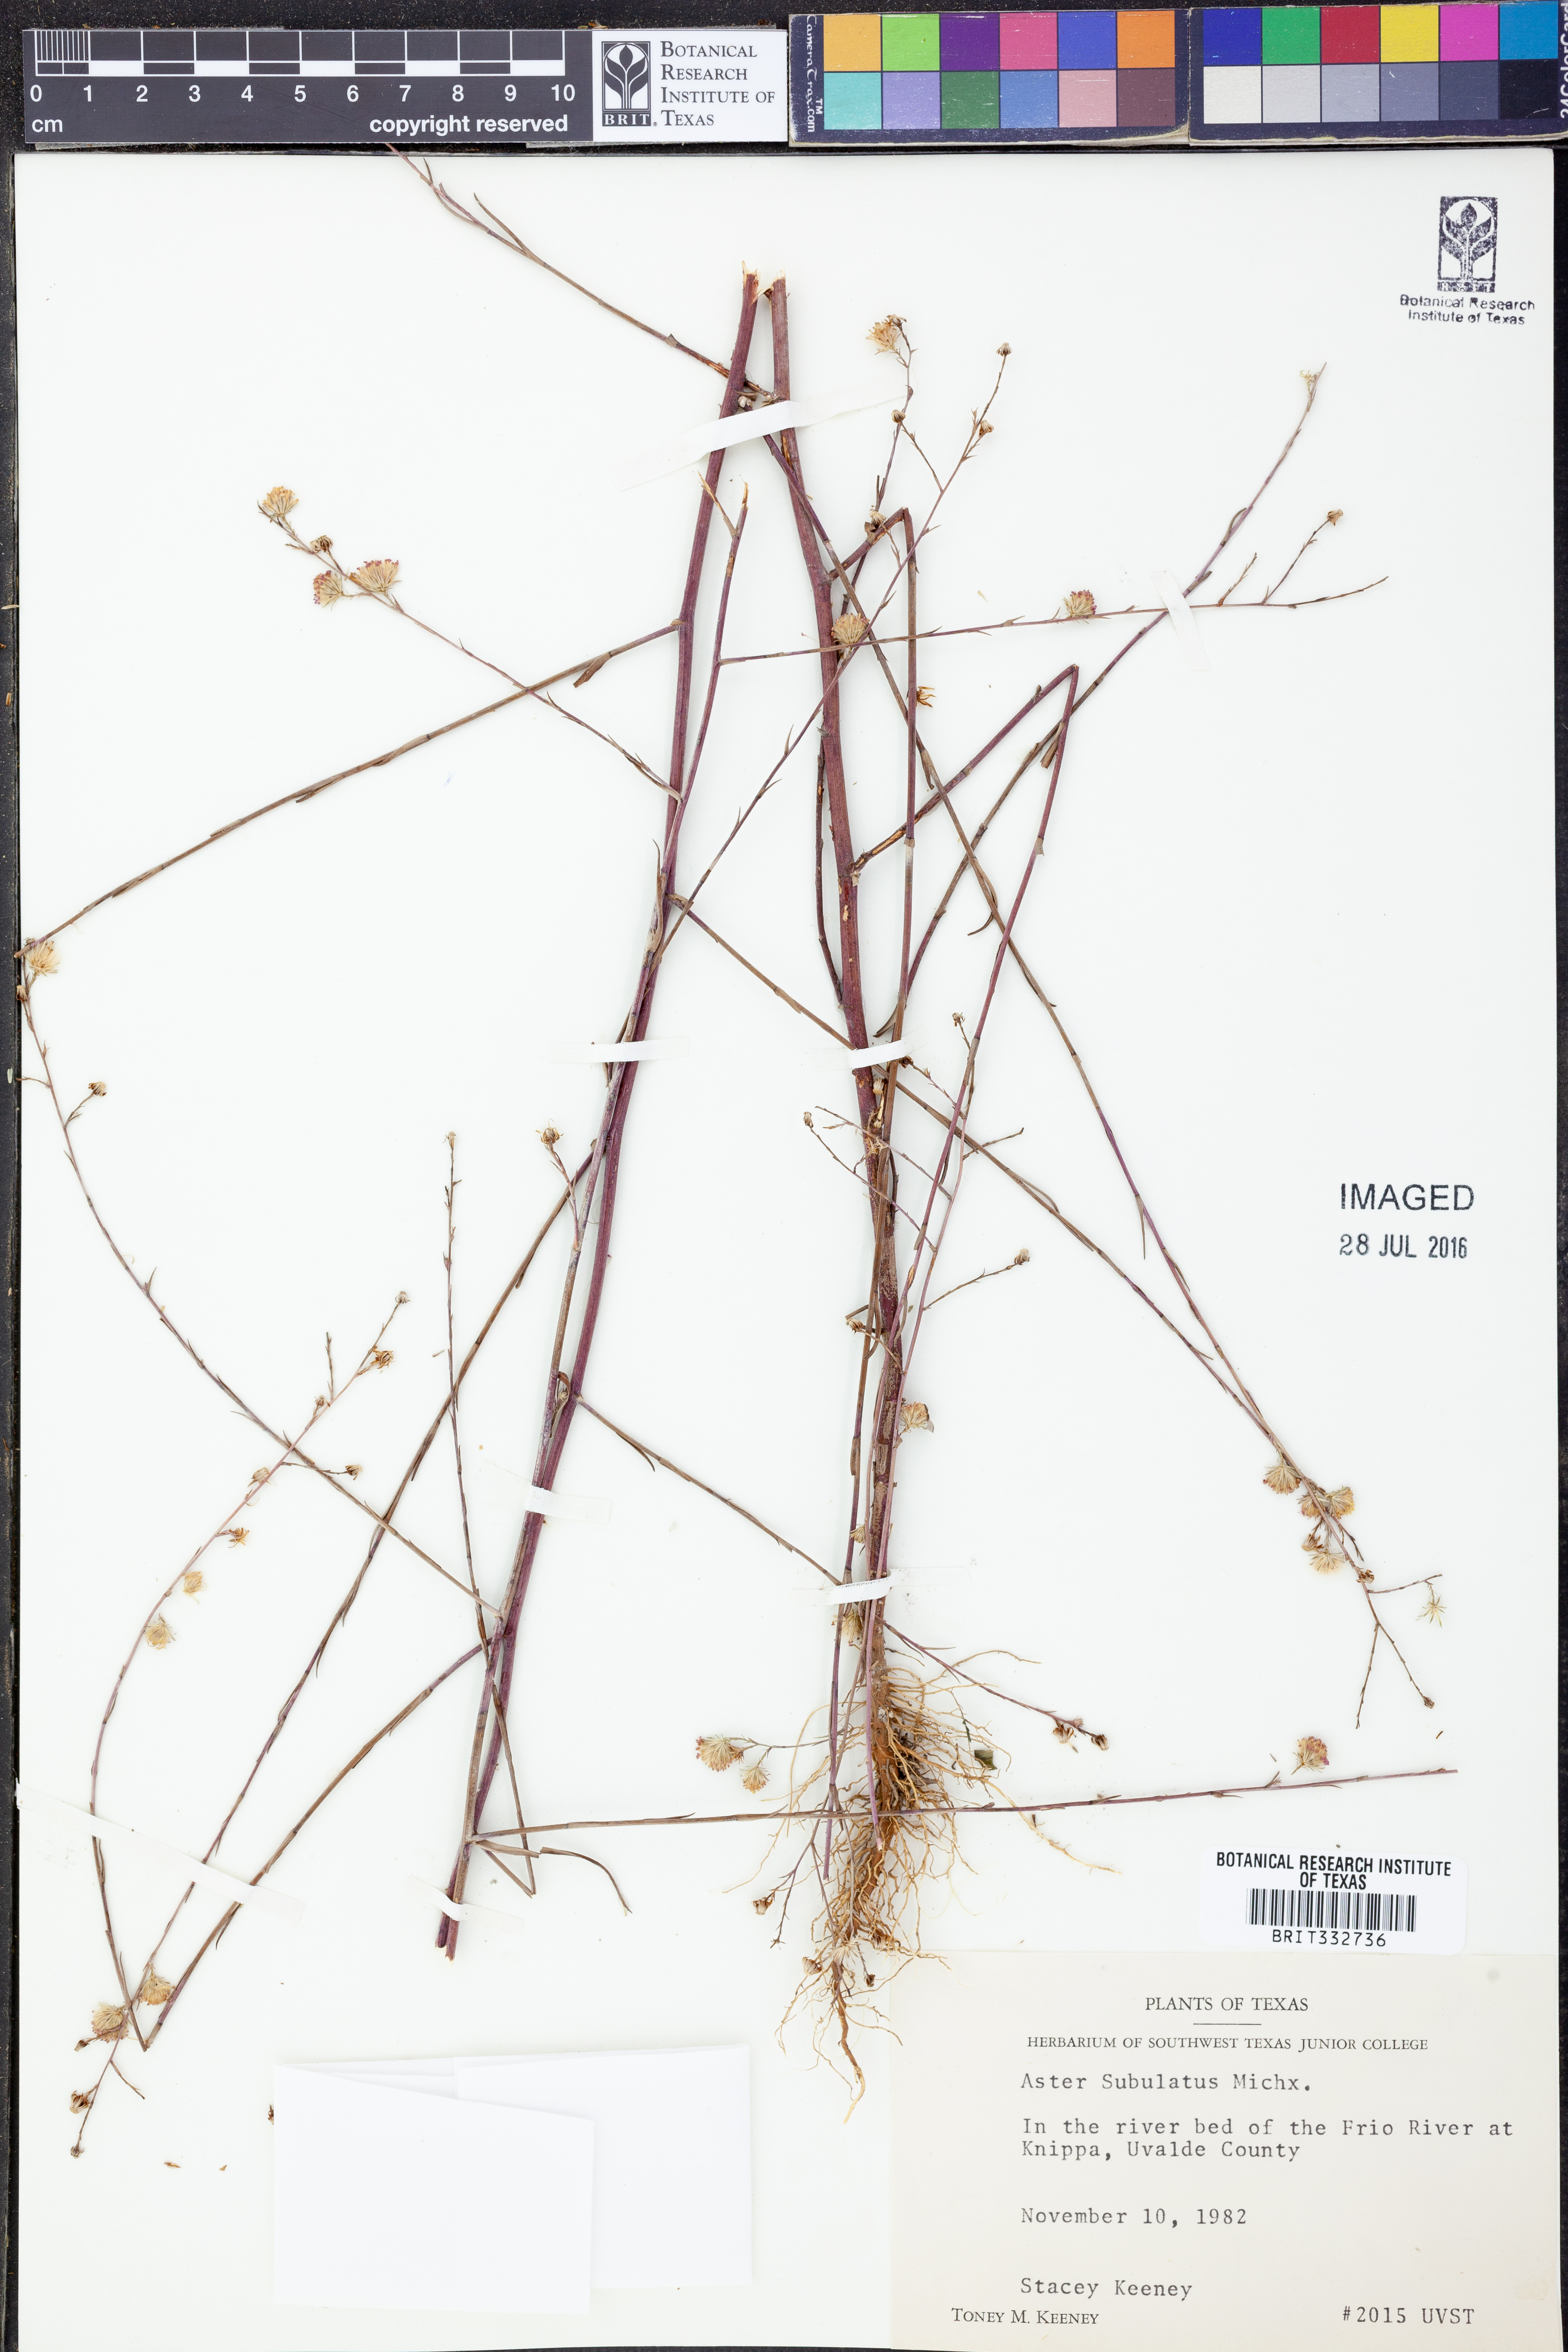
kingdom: Plantae
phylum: Tracheophyta
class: Magnoliopsida
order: Asterales
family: Asteraceae
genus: Symphyotrichum
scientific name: Symphyotrichum subulatum
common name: Annual saltmarsh aster
